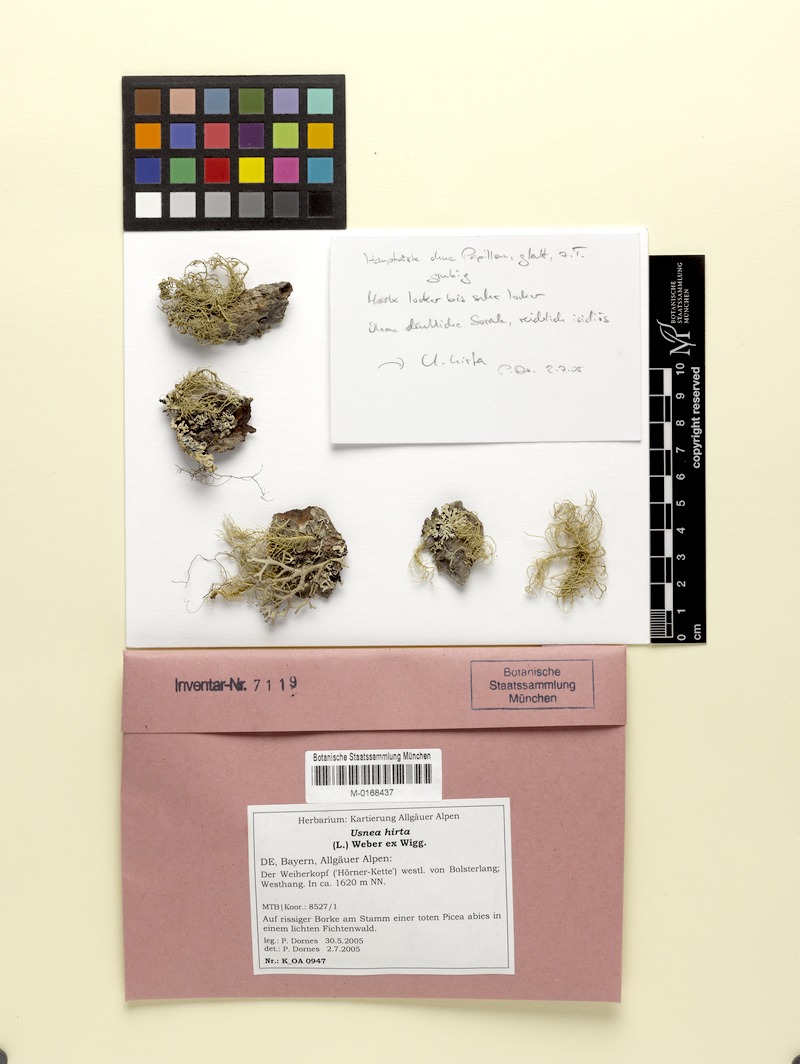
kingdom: Fungi
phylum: Ascomycota
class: Lecanoromycetes
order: Lecanorales
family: Parmeliaceae
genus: Usnea
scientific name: Usnea hirta
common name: Bristly beard lichen
